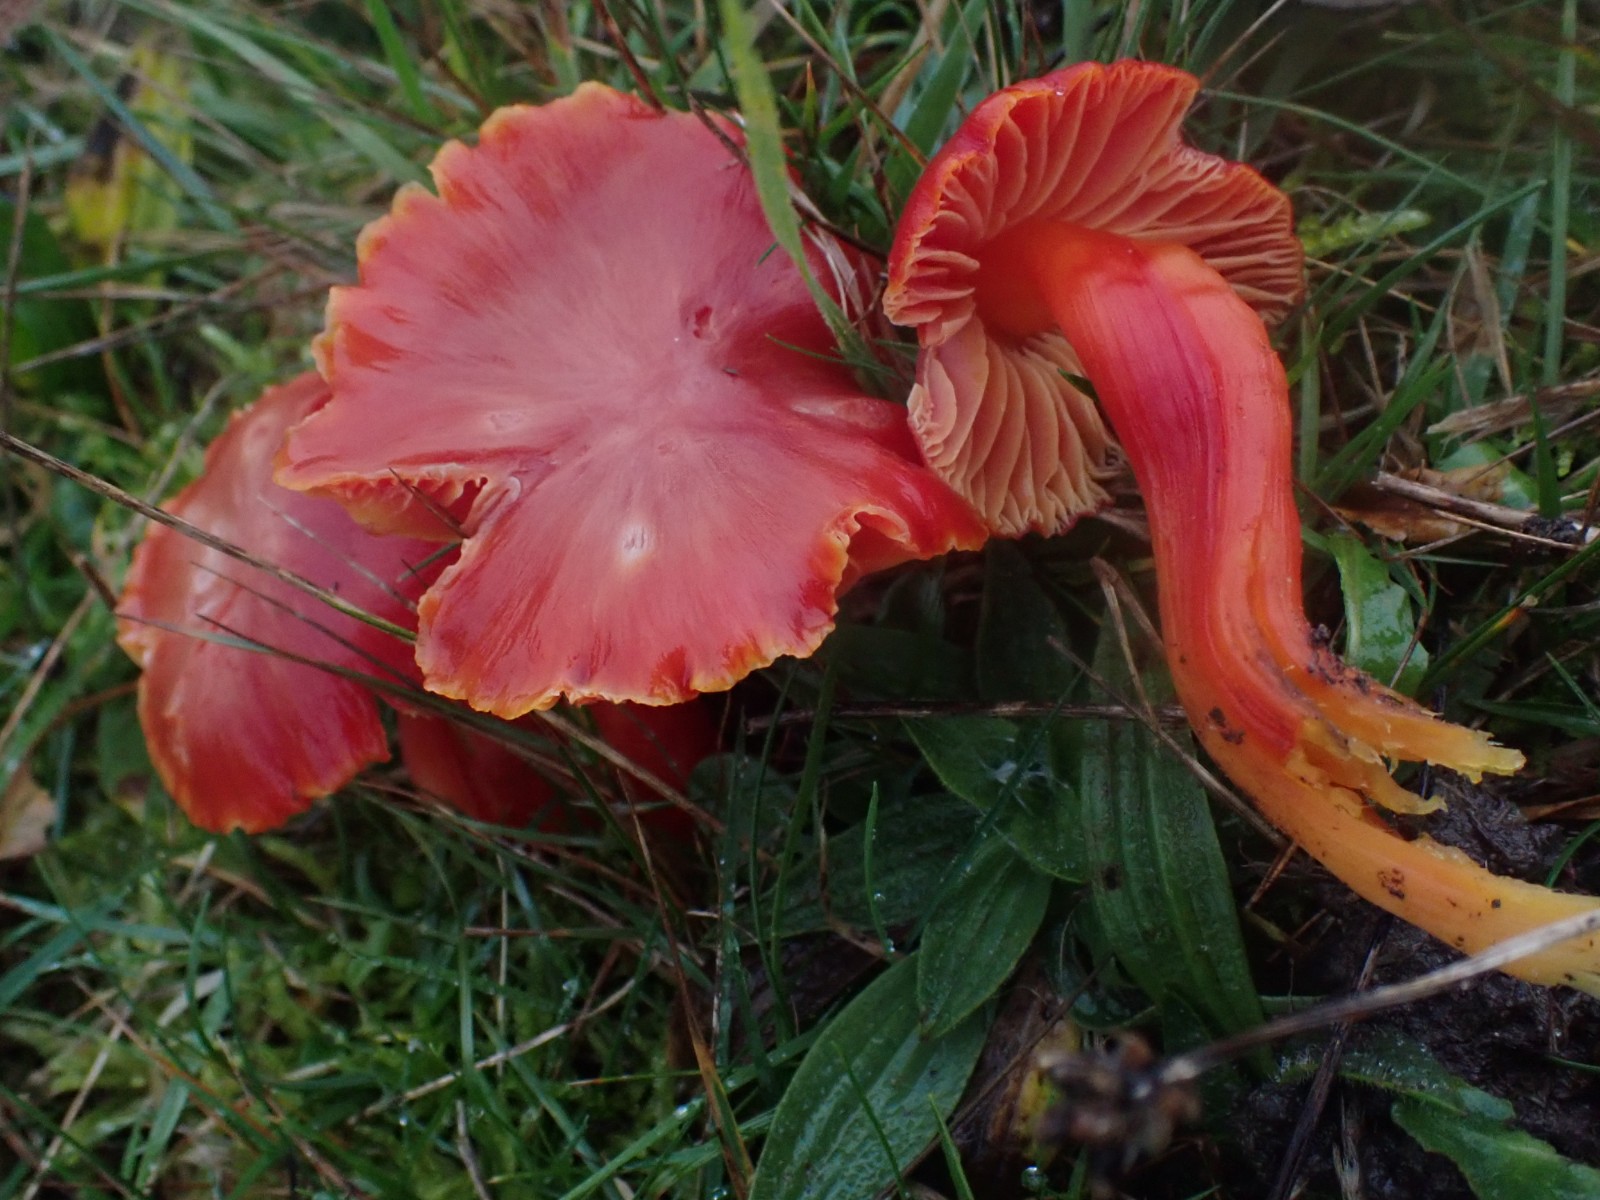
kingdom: Fungi
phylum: Basidiomycota
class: Agaricomycetes
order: Agaricales
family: Hygrophoraceae
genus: Hygrocybe
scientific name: Hygrocybe coccinea
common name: cinnober-vokshat
